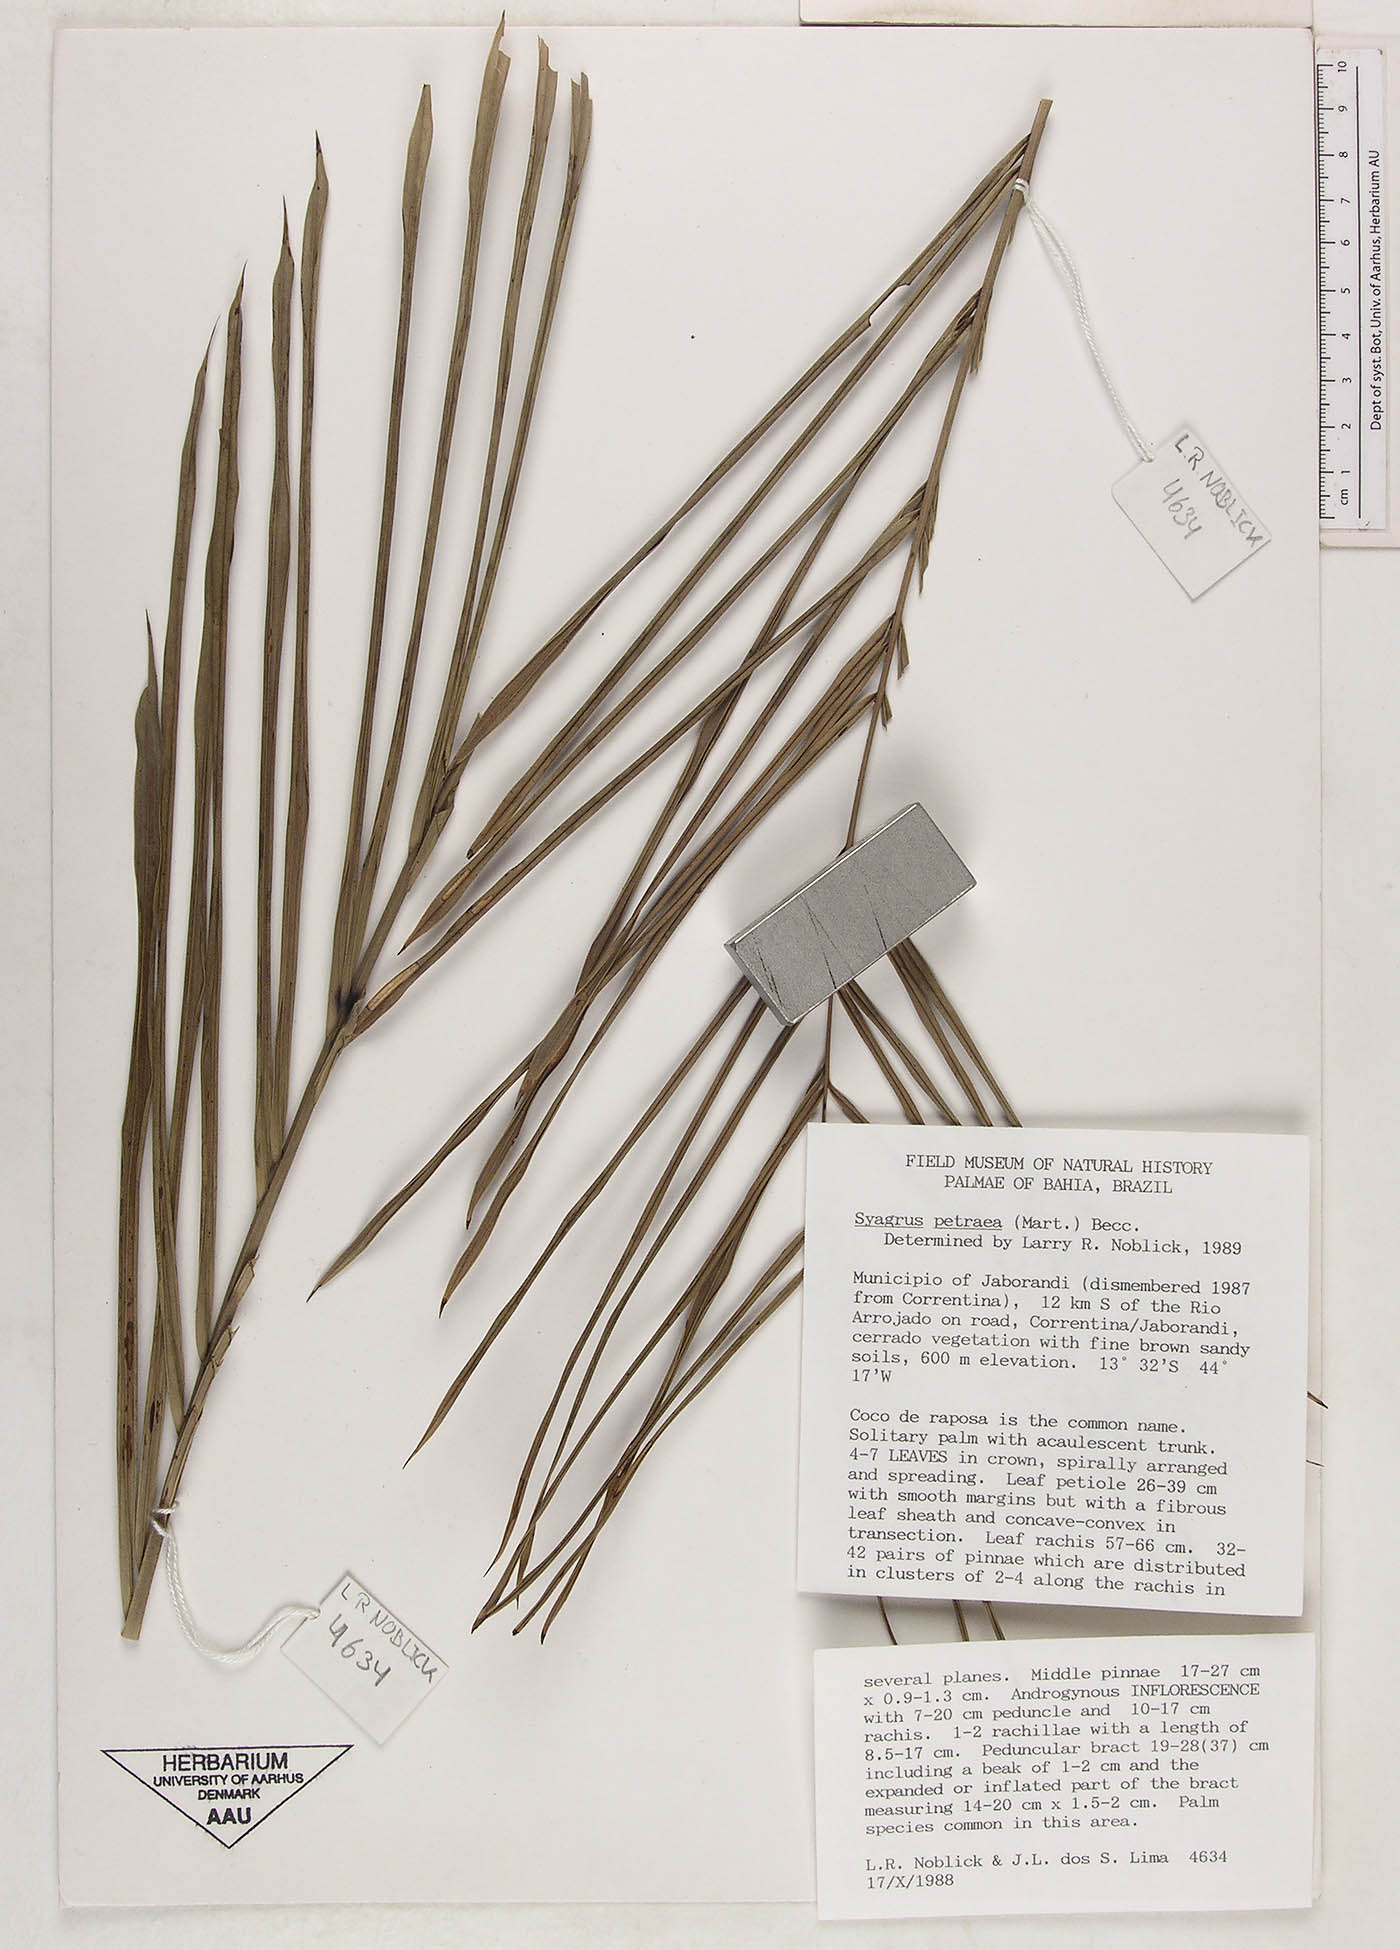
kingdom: Plantae
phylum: Tracheophyta
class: Liliopsida
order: Arecales
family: Arecaceae
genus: Syagrus
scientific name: Syagrus petraea
